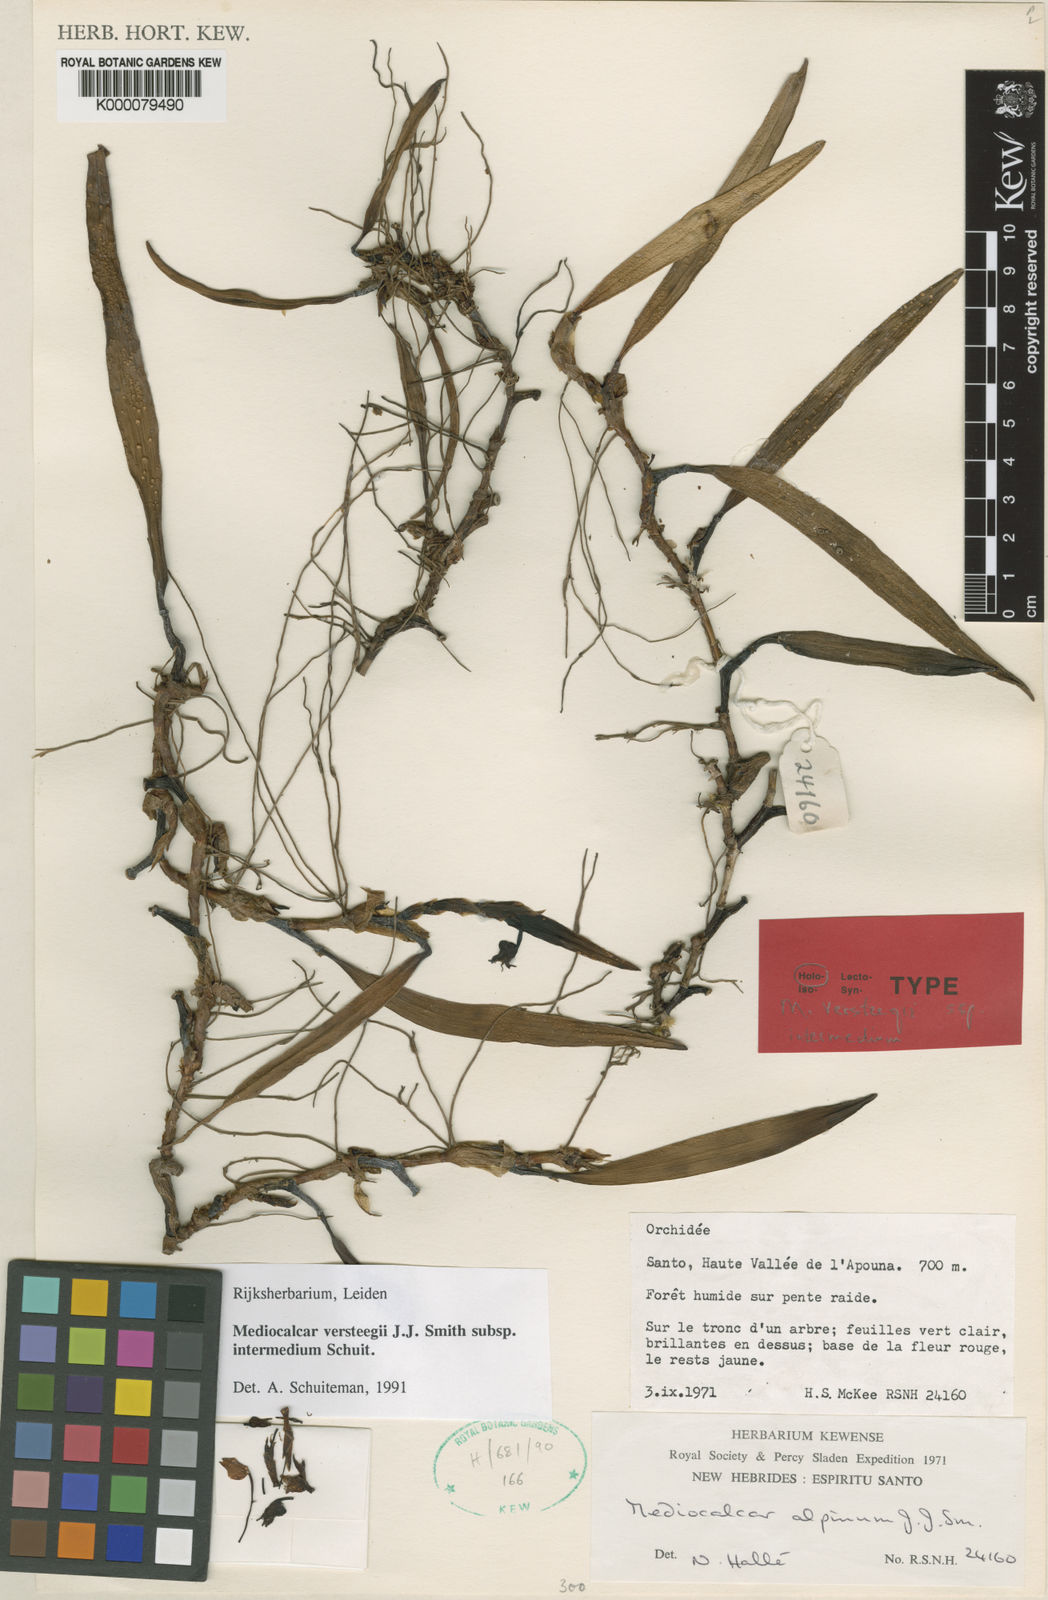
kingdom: Plantae
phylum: Tracheophyta
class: Liliopsida
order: Asparagales
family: Orchidaceae
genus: Mediocalcar
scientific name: Mediocalcar versteegii
